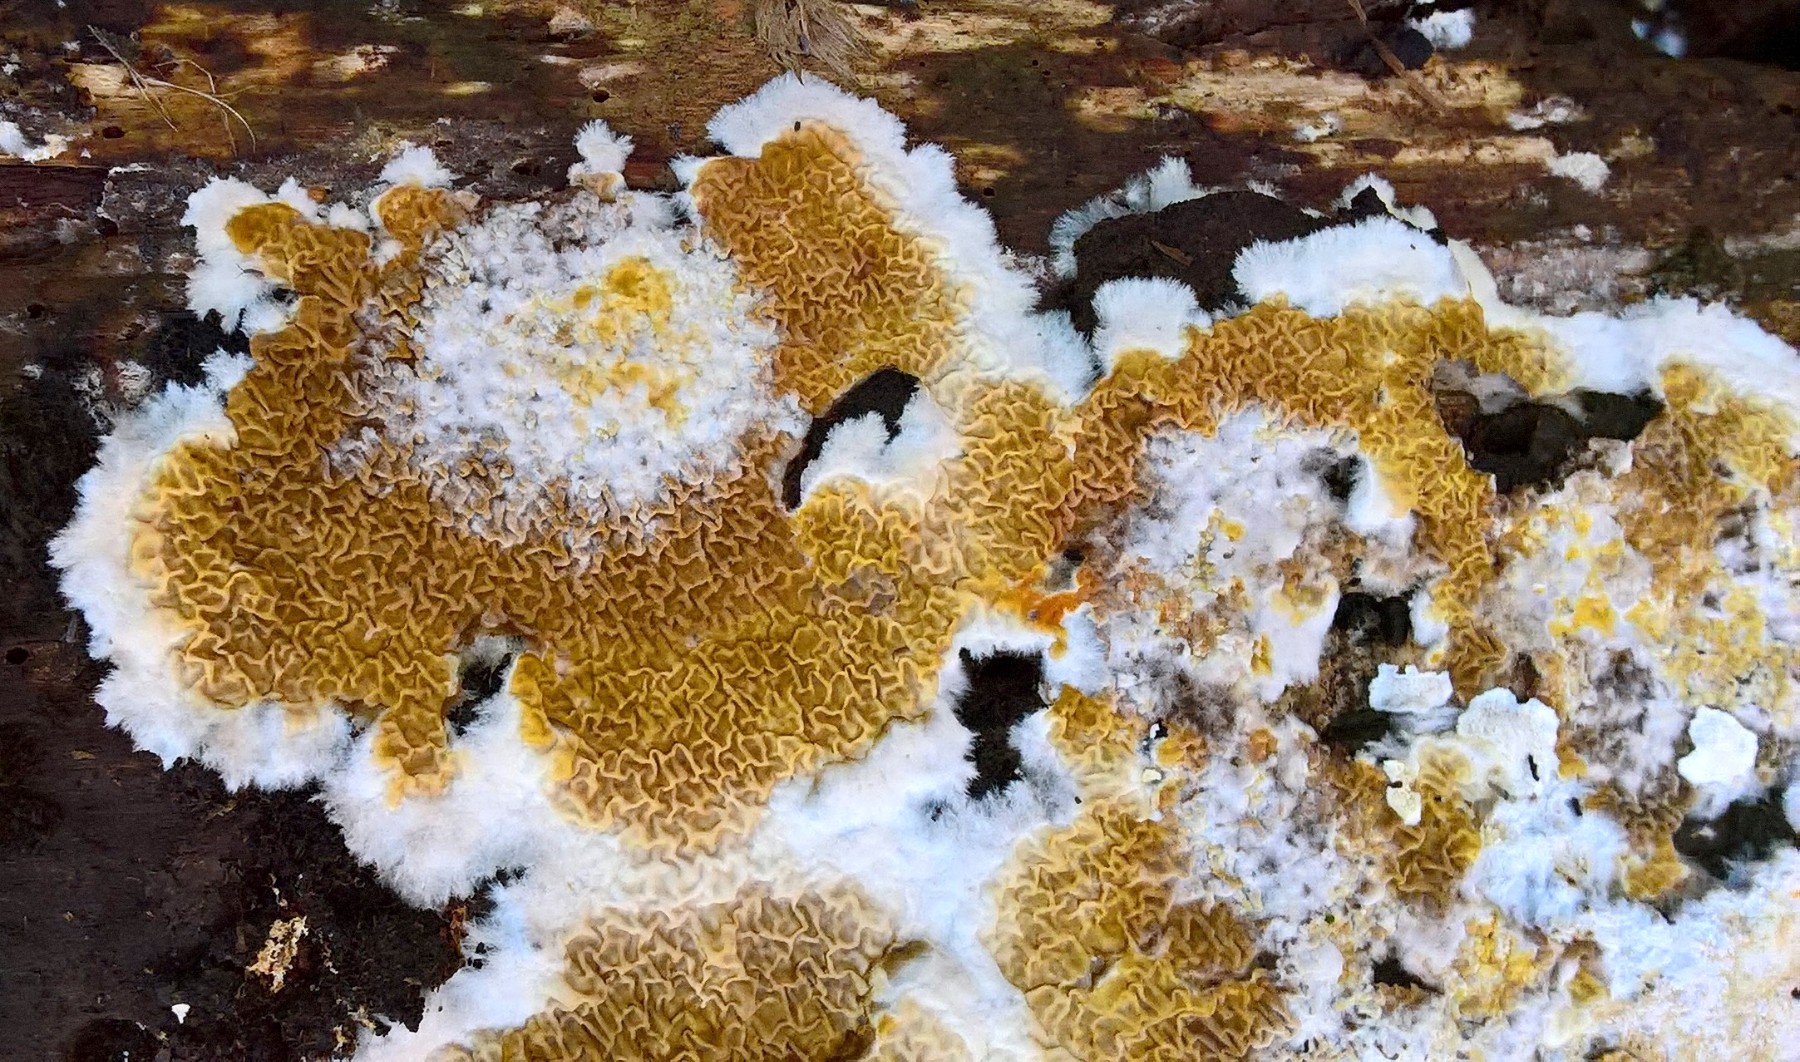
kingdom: Fungi
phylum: Basidiomycota
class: Agaricomycetes
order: Boletales
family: Serpulaceae
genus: Serpula
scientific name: Serpula himantioides
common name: tyndkødet hussvamp
